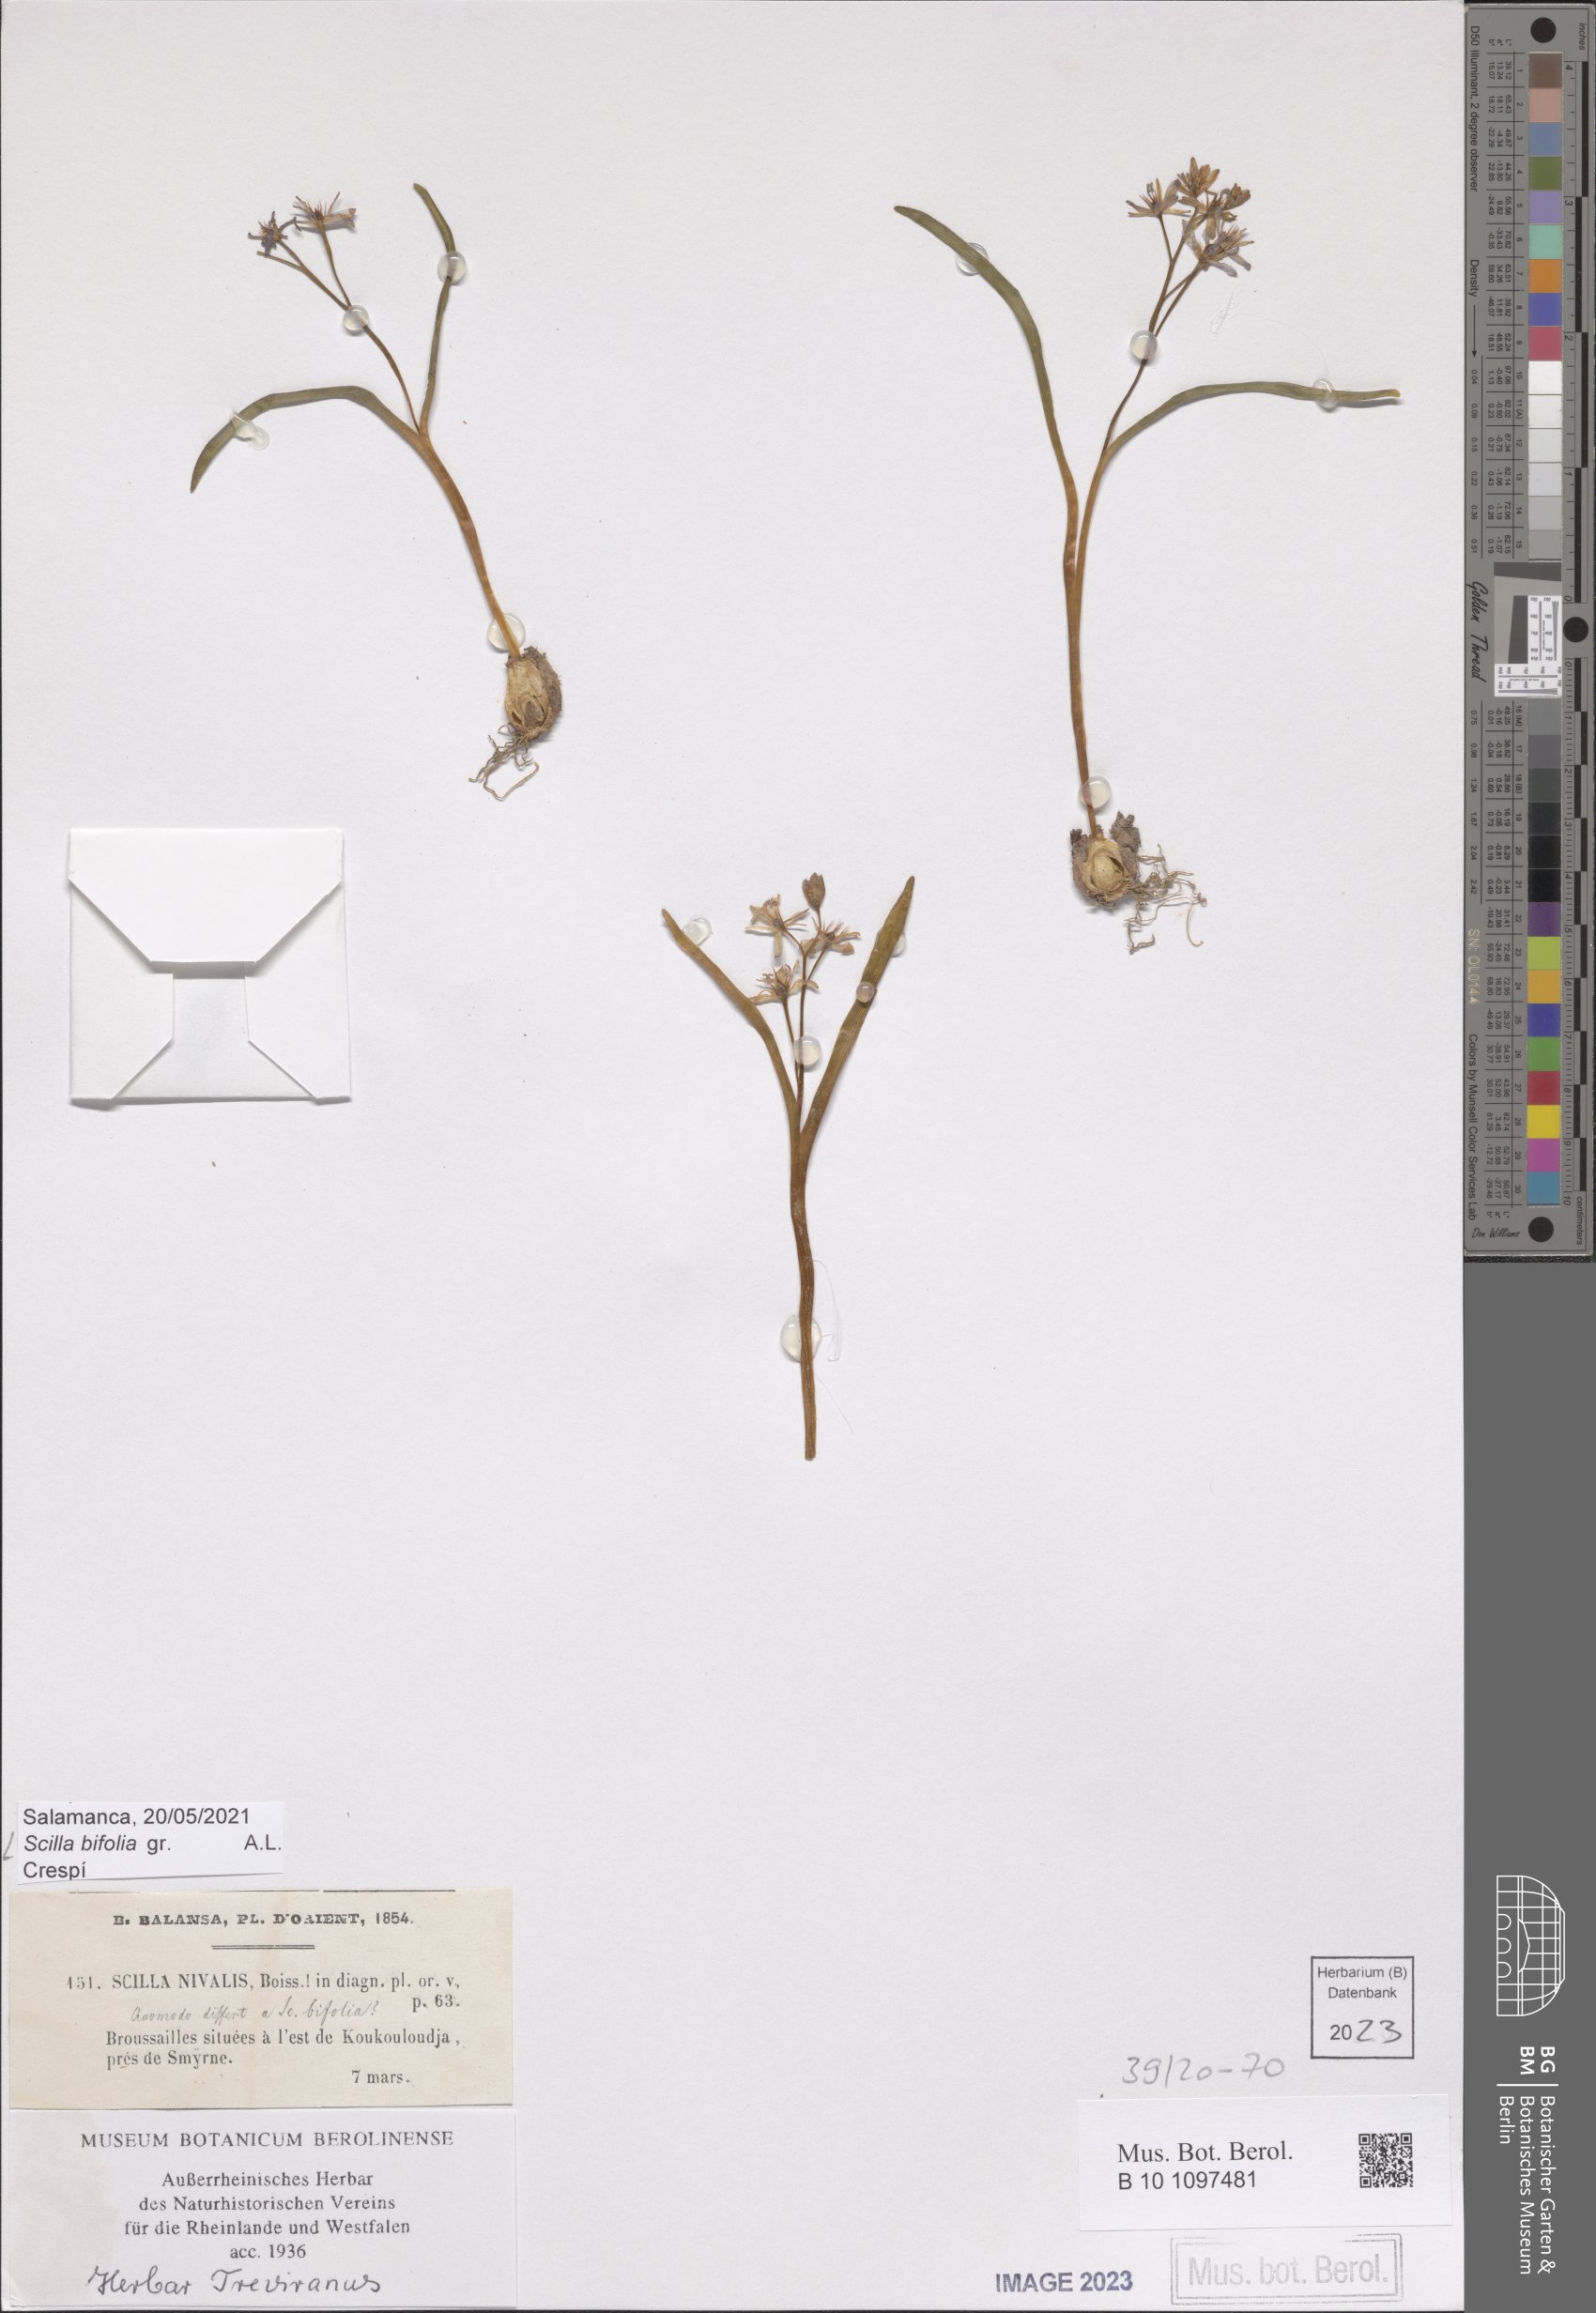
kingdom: Plantae
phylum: Tracheophyta
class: Liliopsida
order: Asparagales
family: Asparagaceae
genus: Scilla
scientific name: Scilla bifolia
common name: Alpine squill
